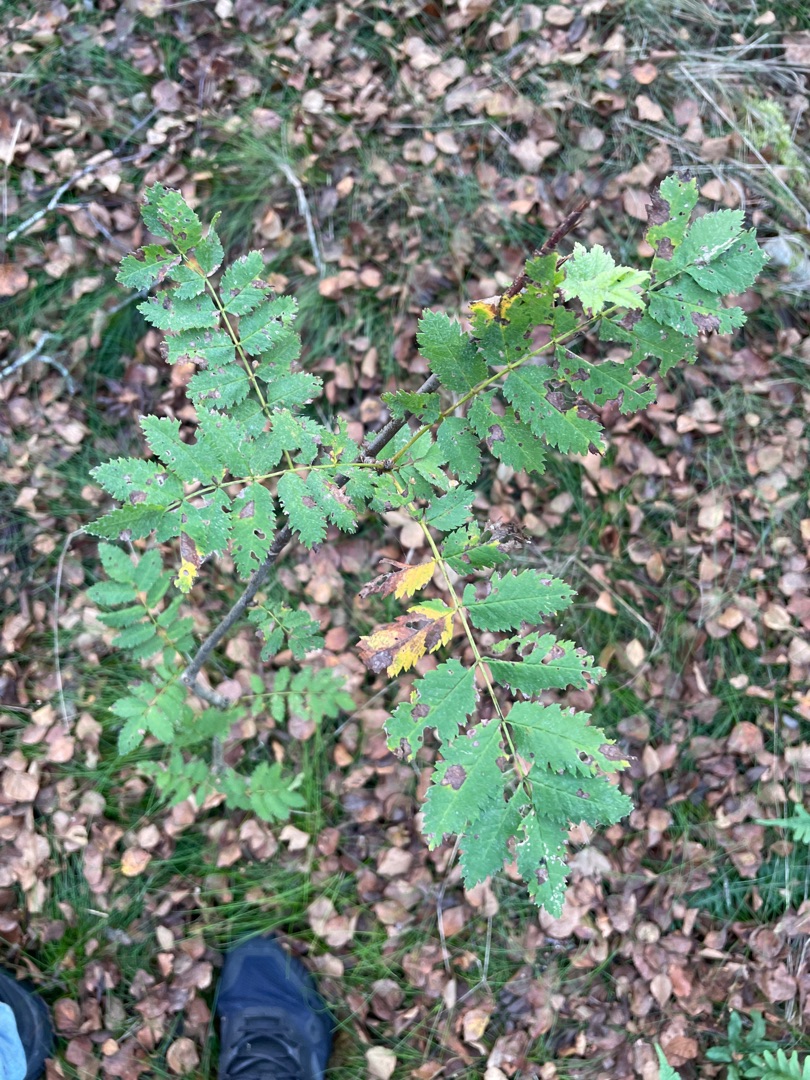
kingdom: Plantae
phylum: Tracheophyta
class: Magnoliopsida
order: Rosales
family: Rosaceae
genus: Sorbus
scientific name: Sorbus aucuparia
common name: Almindelig røn
